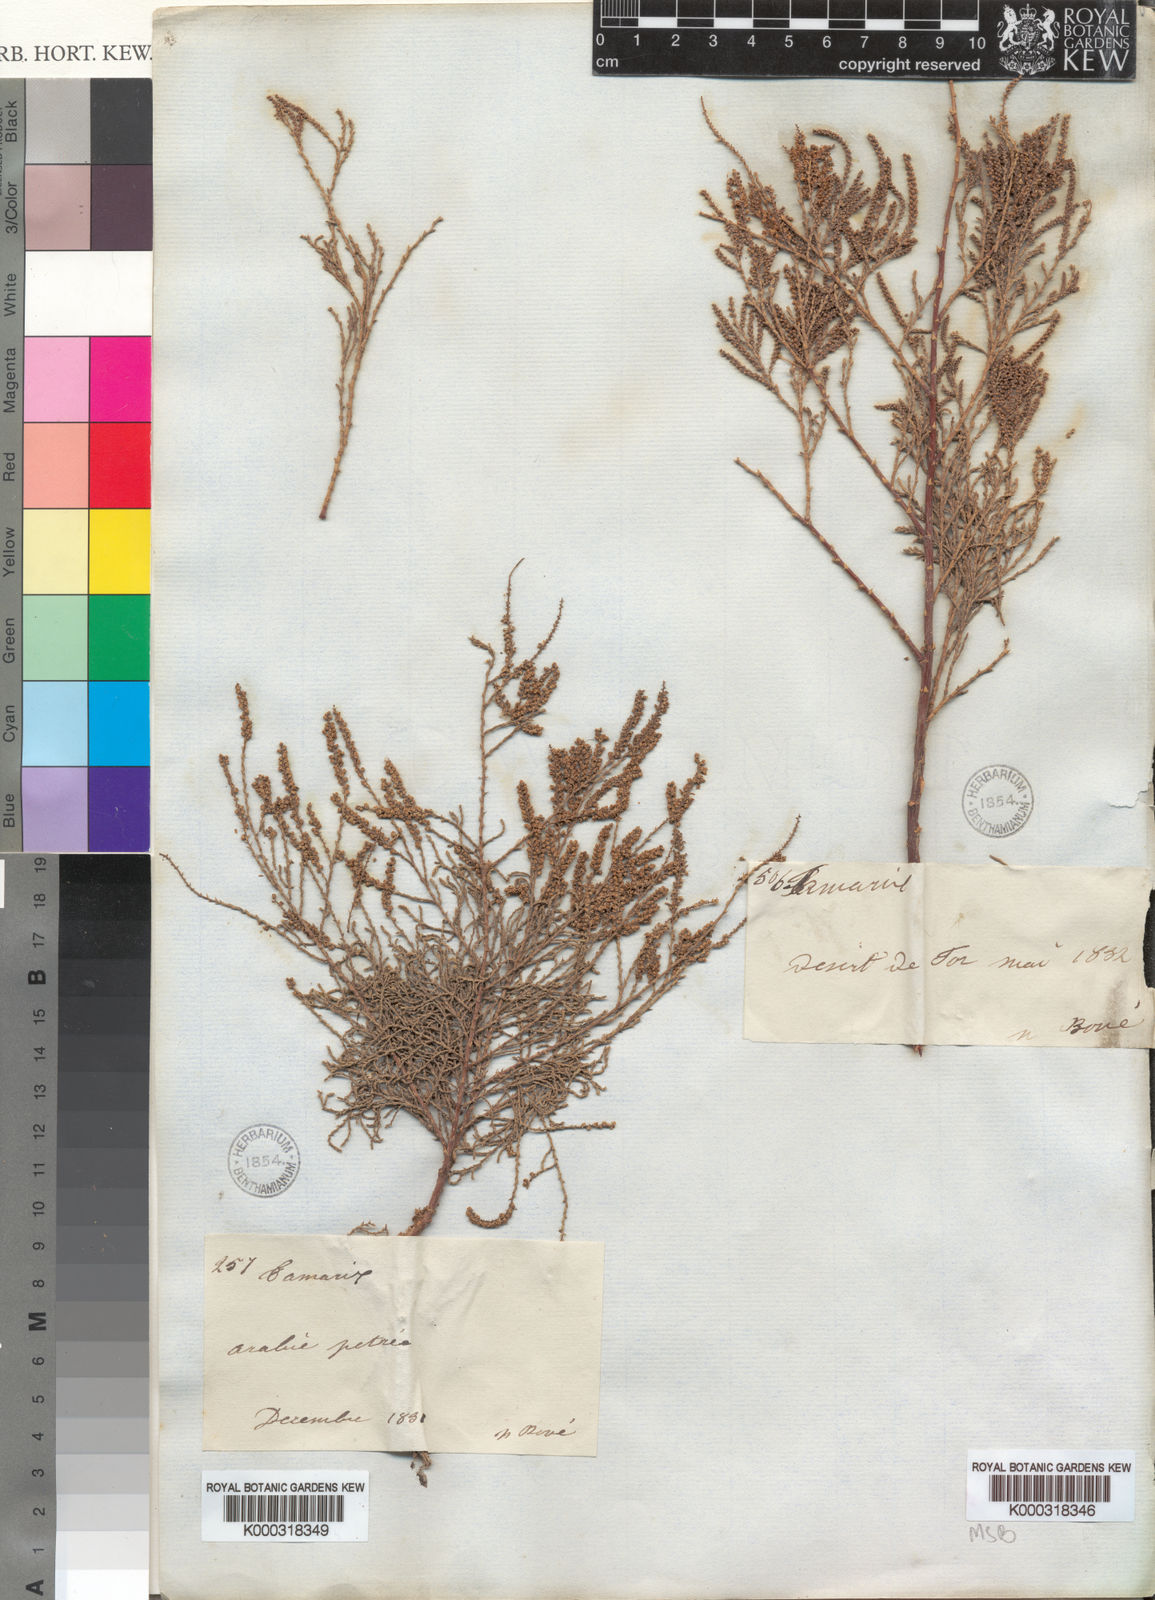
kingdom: Plantae
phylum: Tracheophyta
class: Magnoliopsida
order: Caryophyllales
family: Tamaricaceae
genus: Tamarix
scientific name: Tamarix senegalensis
